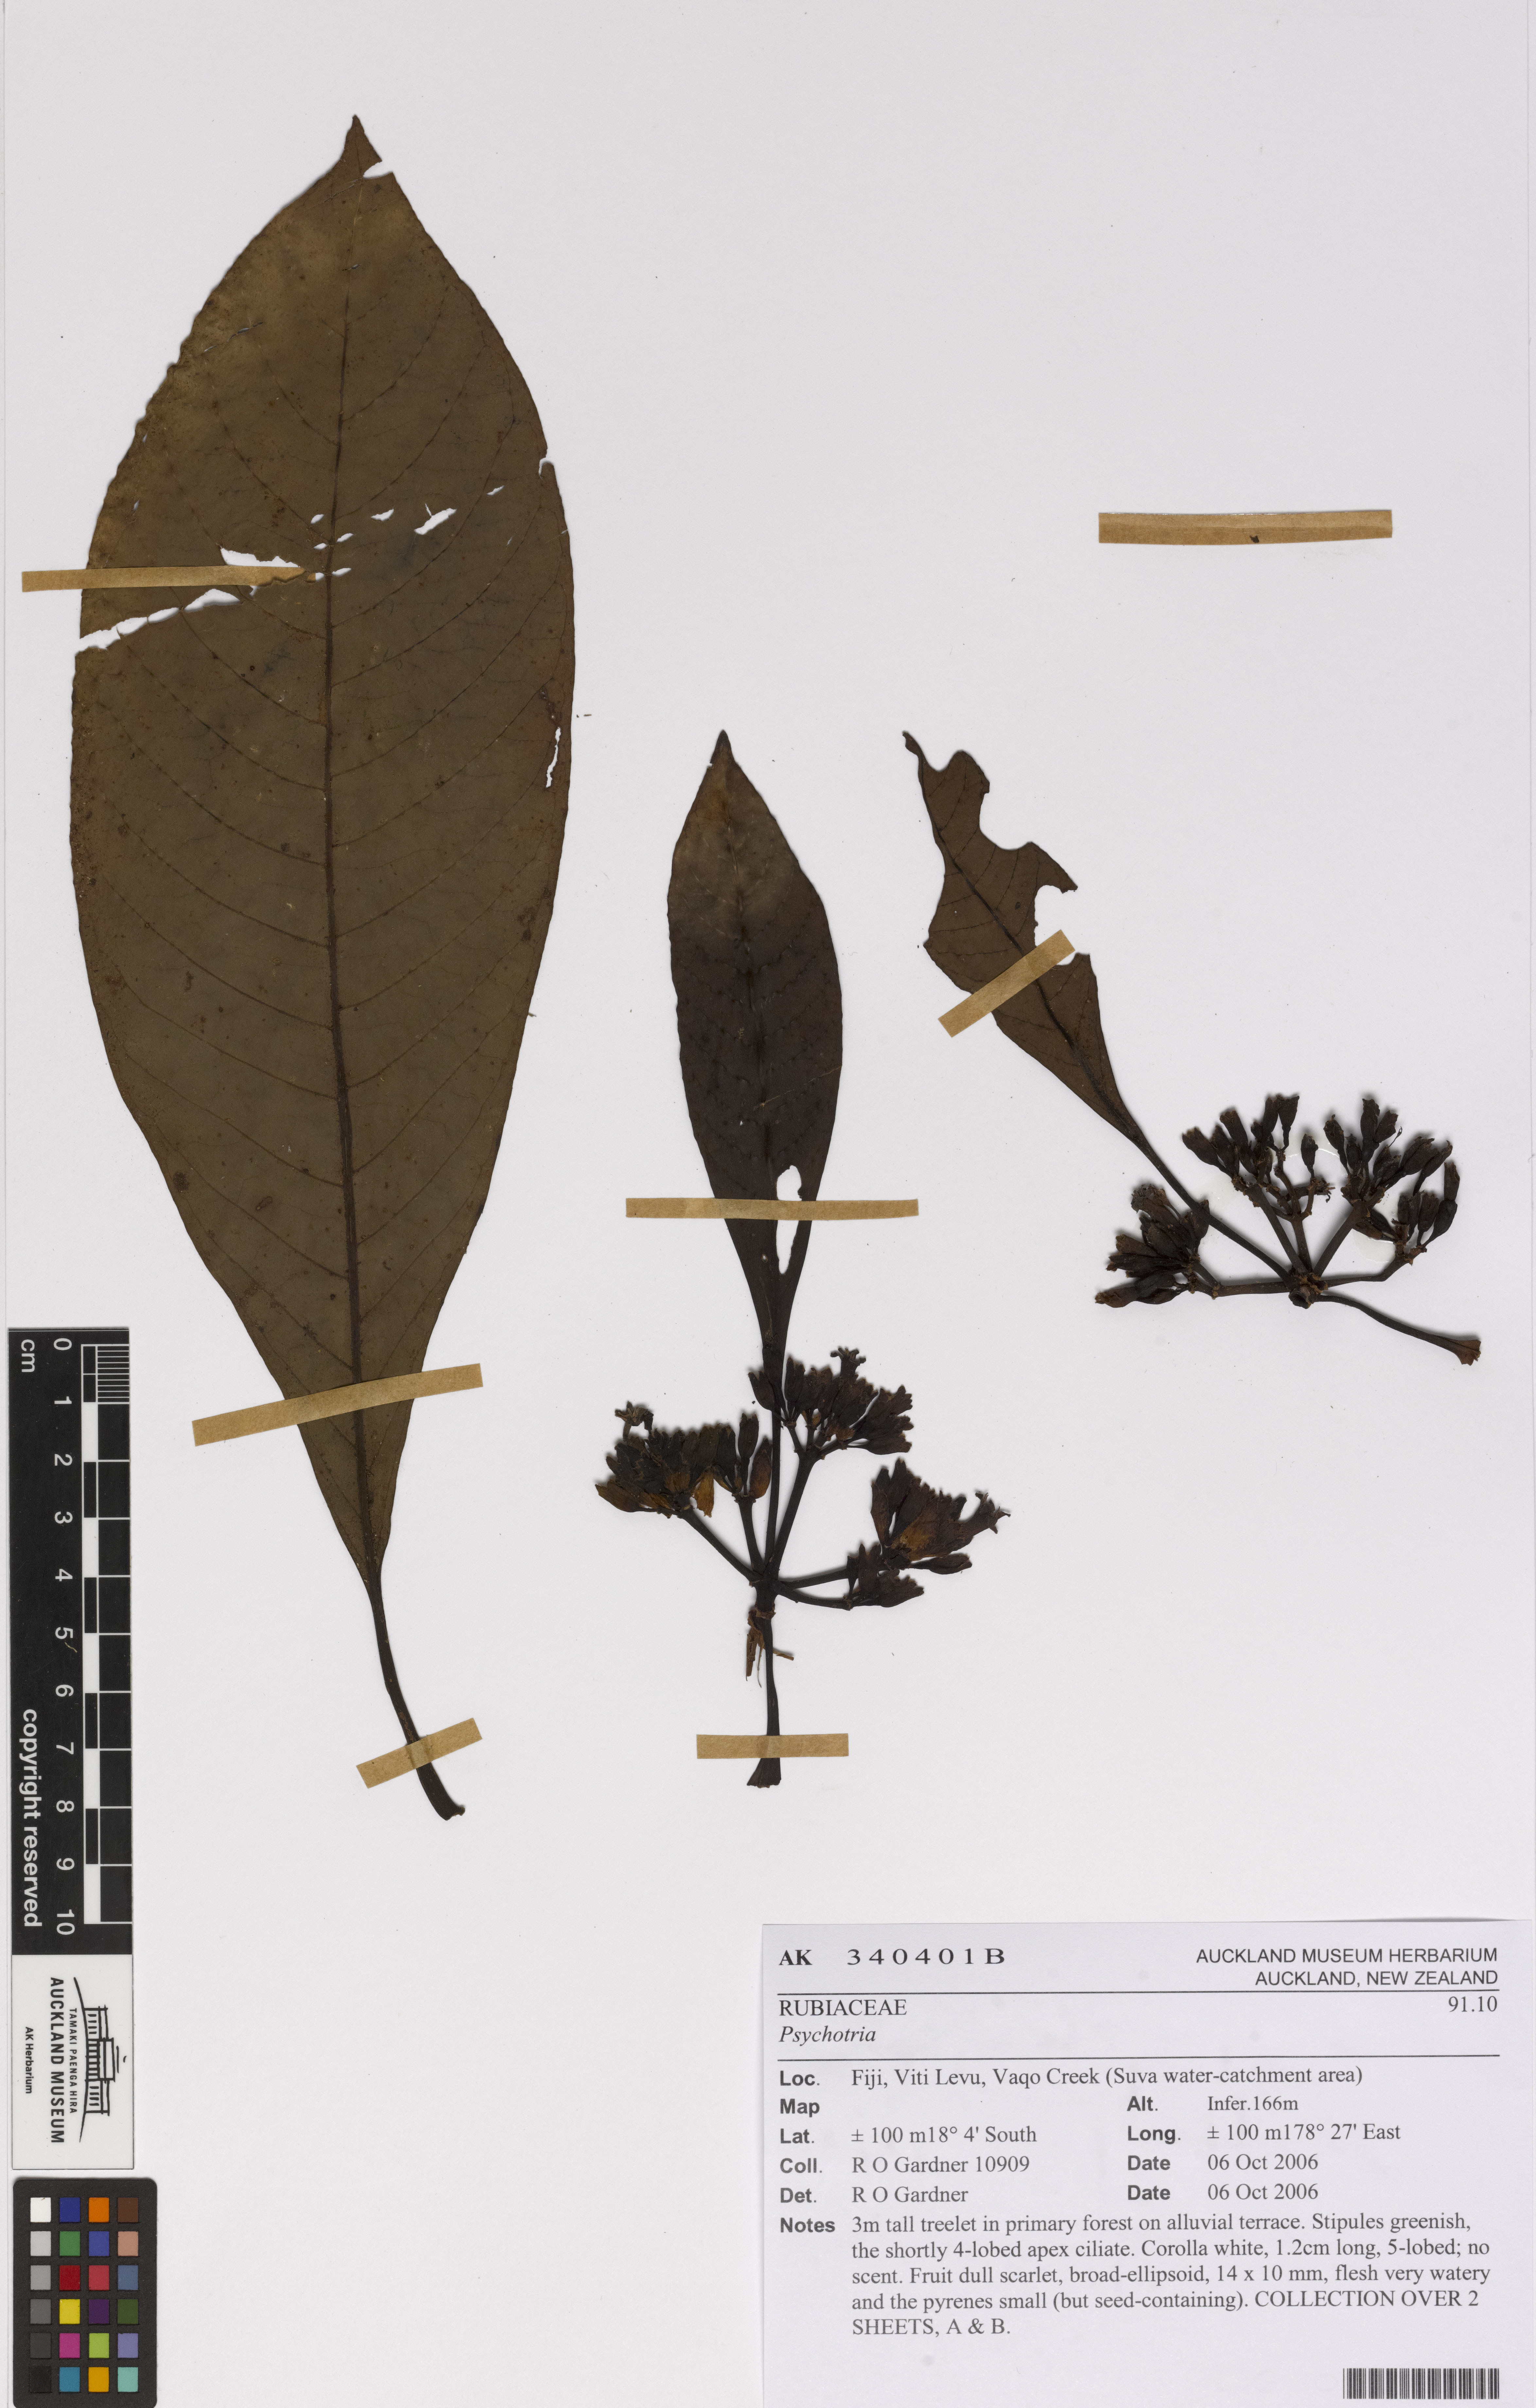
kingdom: Plantae
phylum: Tracheophyta
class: Magnoliopsida
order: Gentianales
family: Rubiaceae
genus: Psychotria
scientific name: Psychotria
